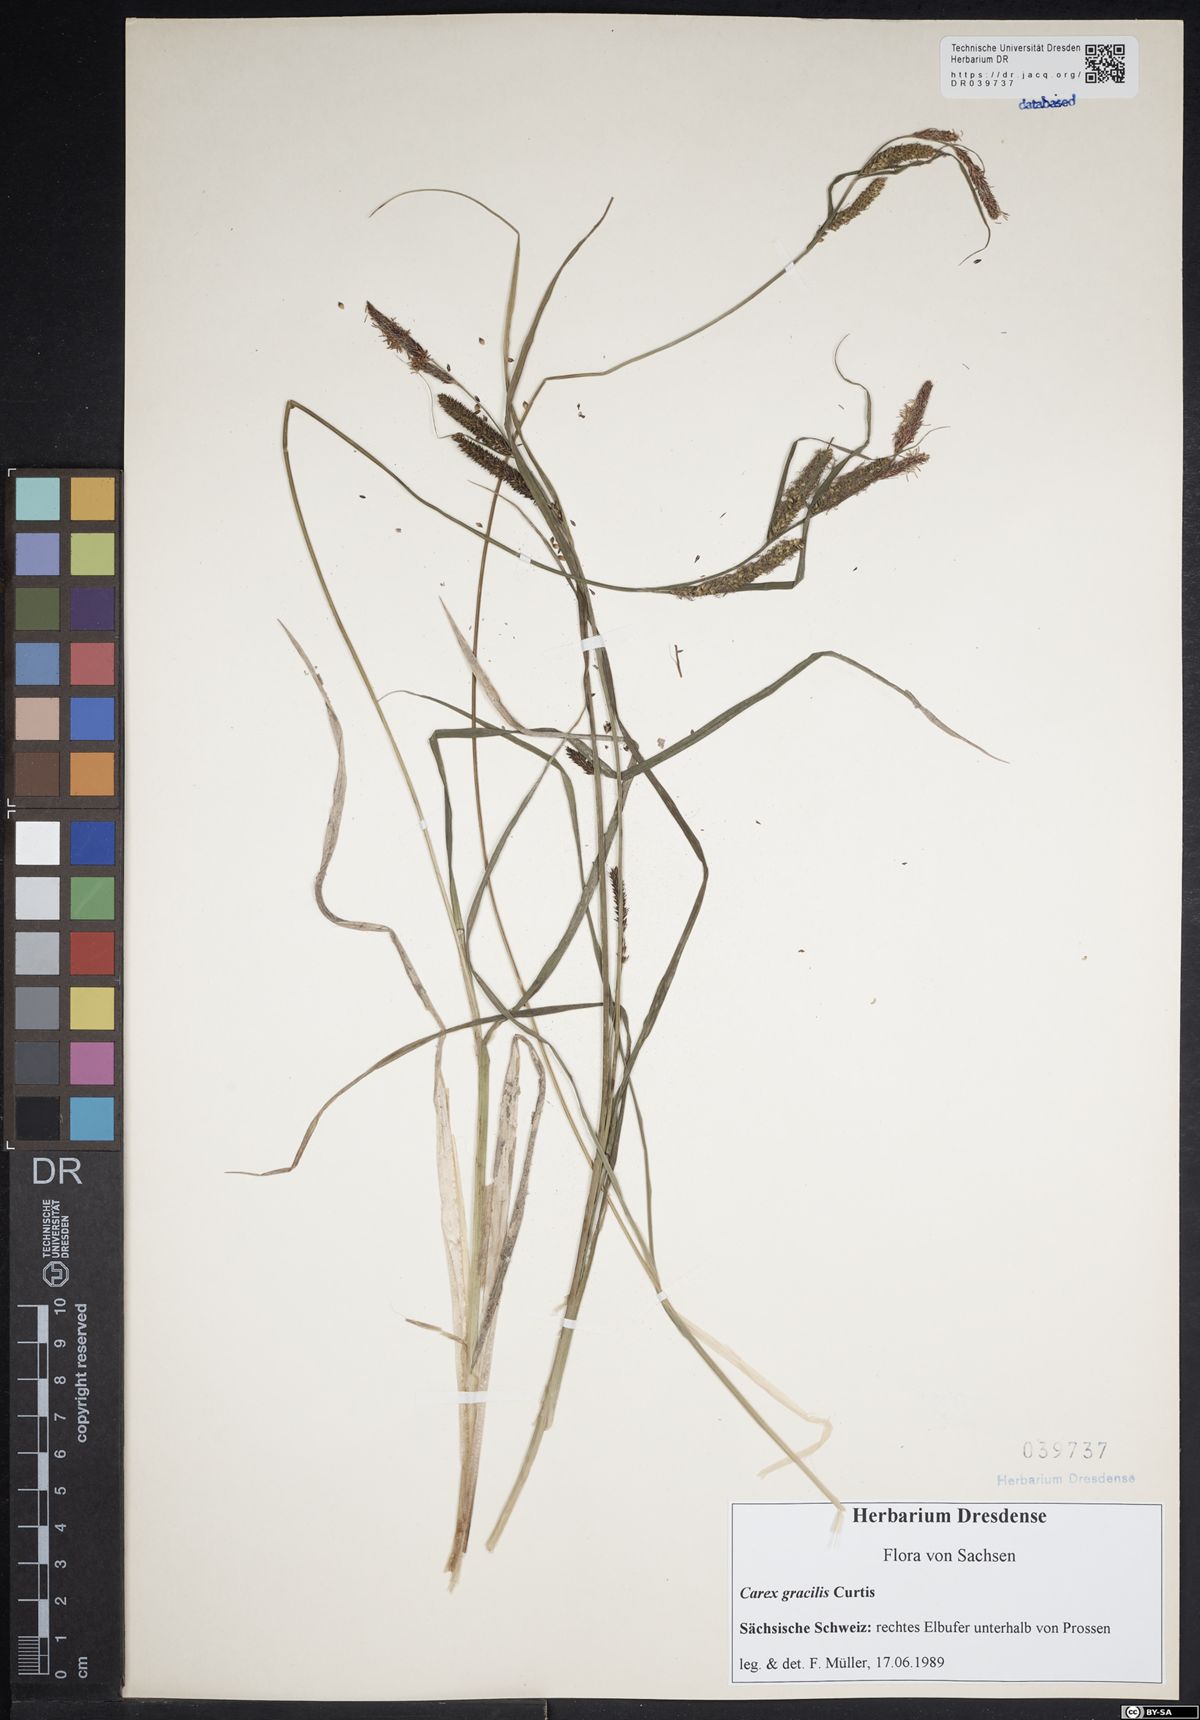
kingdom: Plantae
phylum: Tracheophyta
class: Liliopsida
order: Poales
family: Cyperaceae
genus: Carex
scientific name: Carex acuta
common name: Slender tufted-sedge
